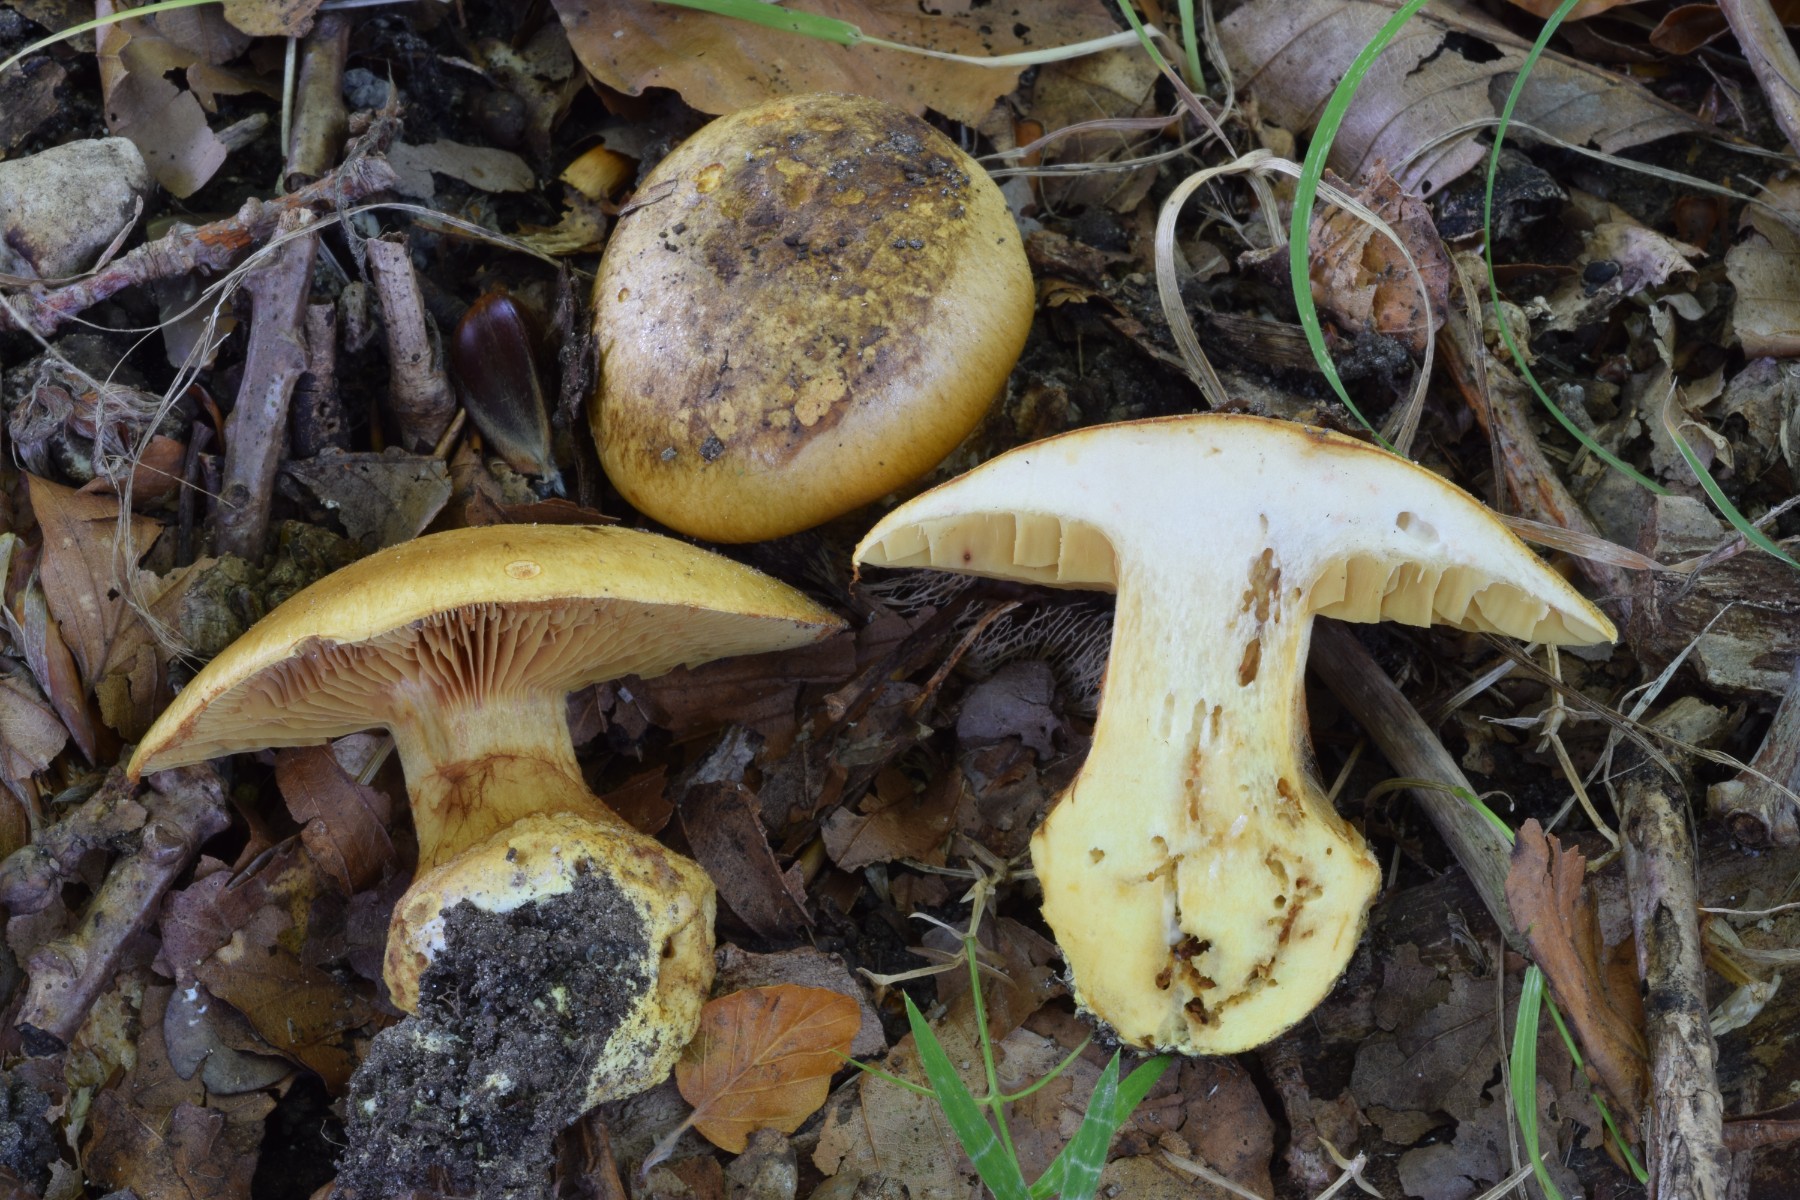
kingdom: Fungi
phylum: Basidiomycota
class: Agaricomycetes
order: Agaricales
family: Cortinariaceae
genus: Calonarius
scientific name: Calonarius alcalinophilus
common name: gyldenbrun slørhat
